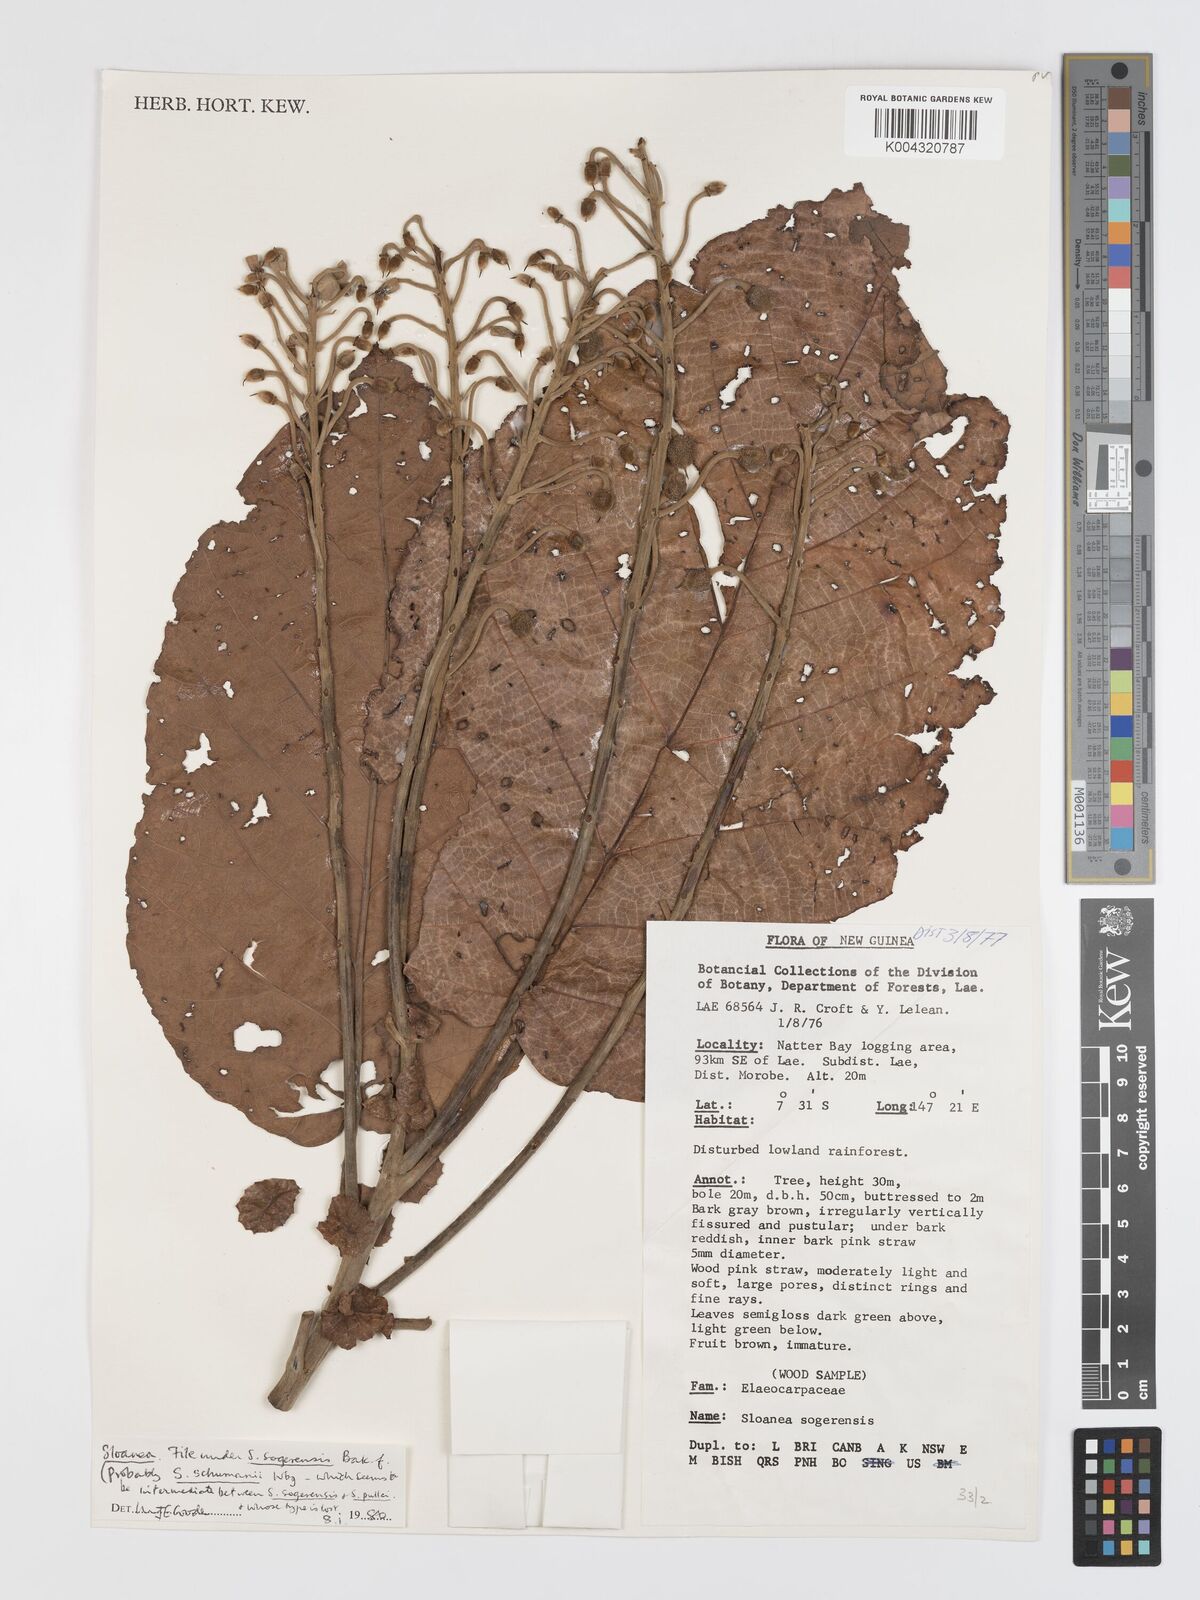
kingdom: Plantae
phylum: Tracheophyta
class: Magnoliopsida
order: Oxalidales
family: Elaeocarpaceae
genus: Sloanea
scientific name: Sloanea sogerensis
